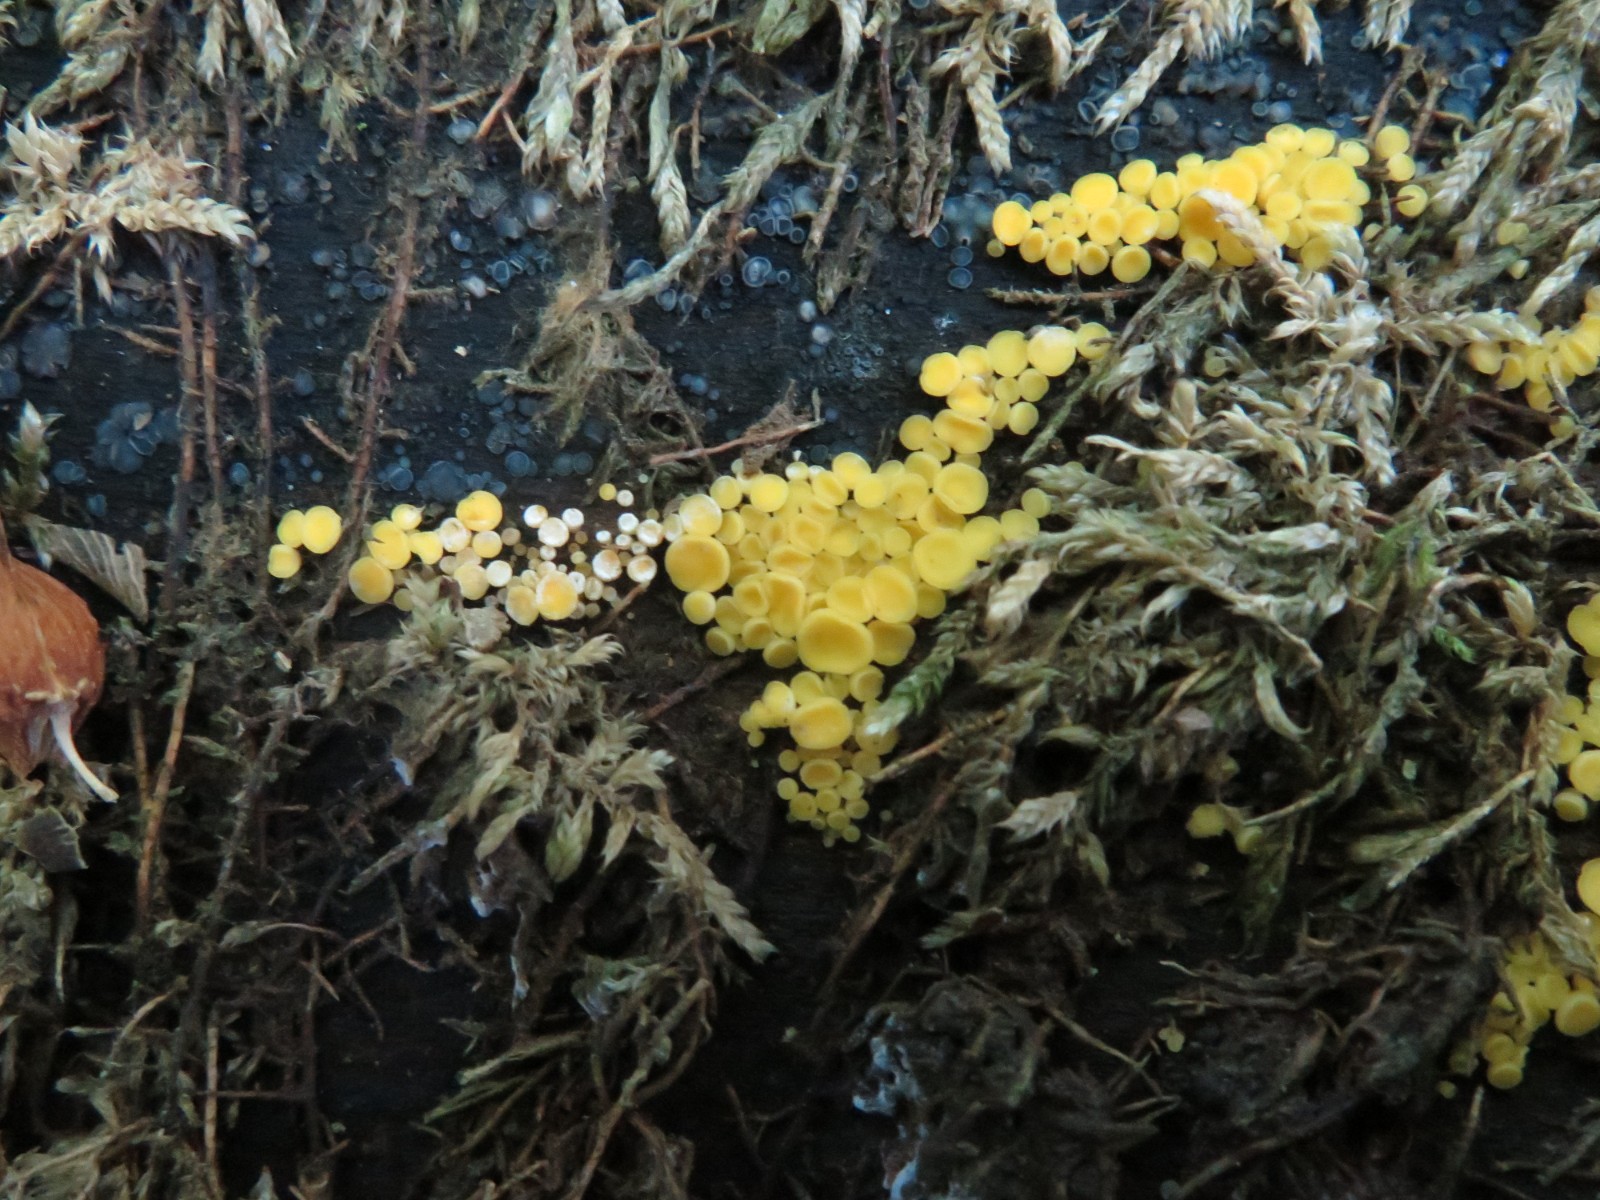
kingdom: Fungi
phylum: Ascomycota
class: Leotiomycetes
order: Helotiales
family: Pezizellaceae
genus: Calycina
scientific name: Calycina citrina
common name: almindelig gulskive
